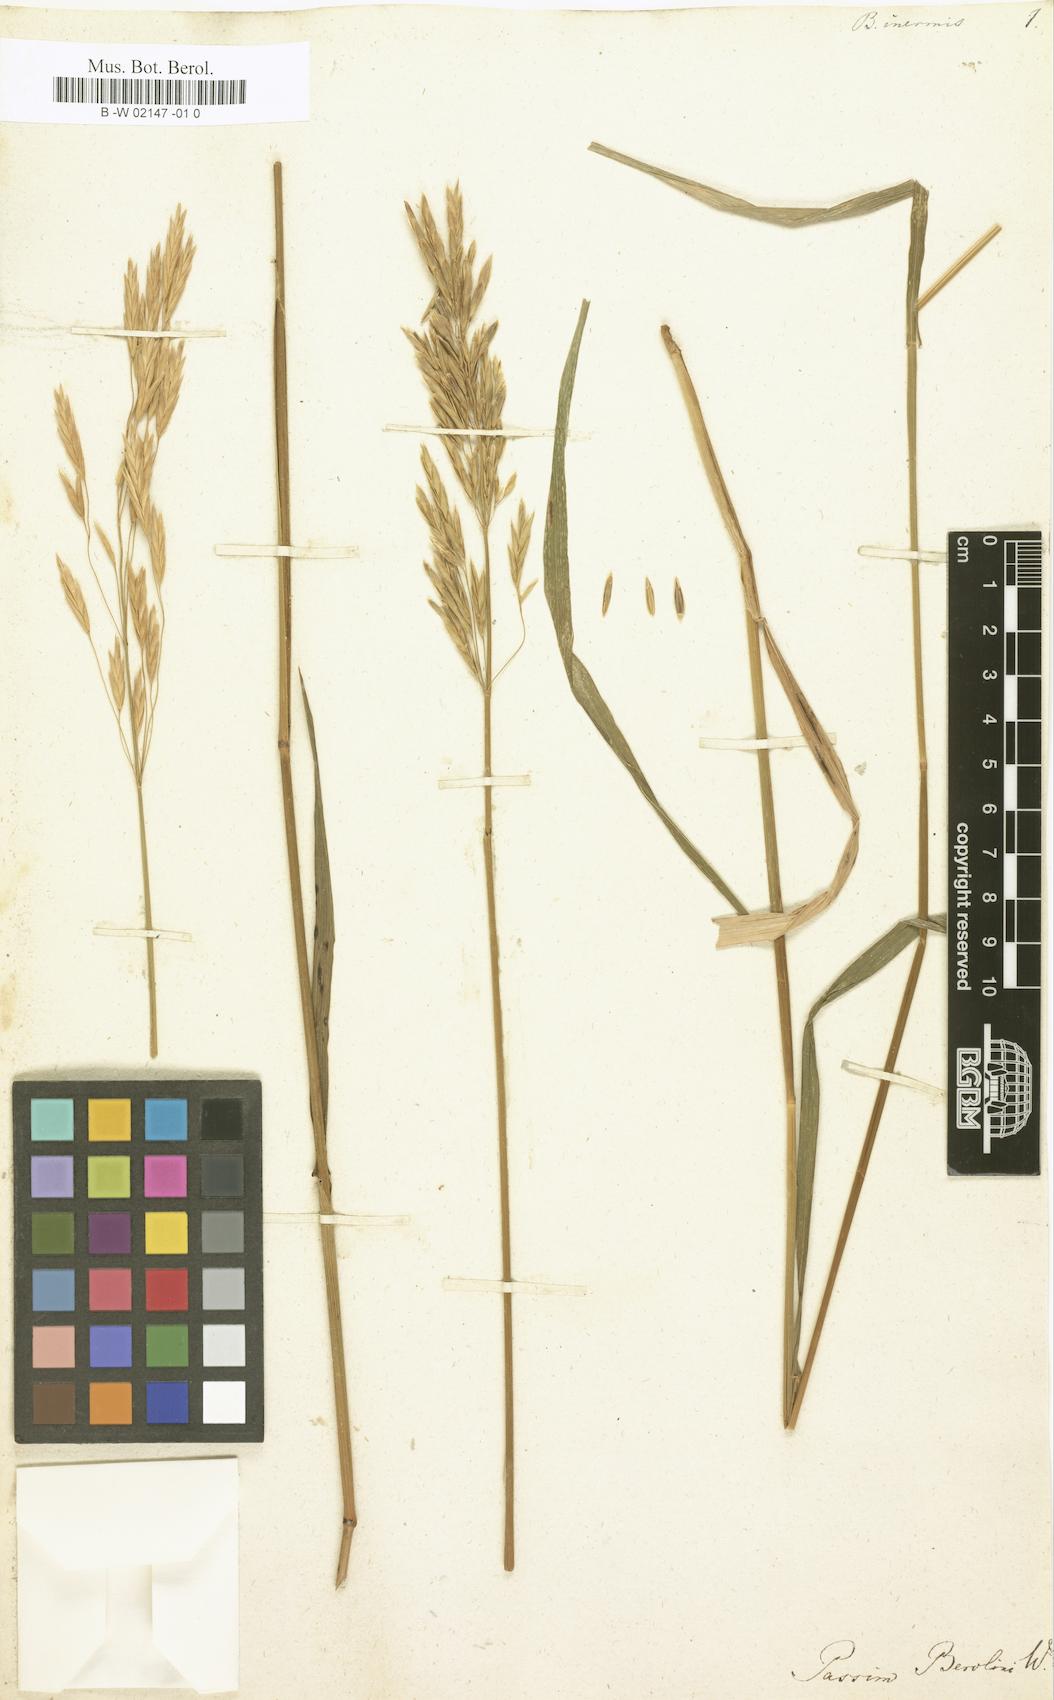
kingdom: Plantae
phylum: Tracheophyta
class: Liliopsida
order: Poales
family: Poaceae
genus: Bromus
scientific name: Bromus inermis
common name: Smooth brome
